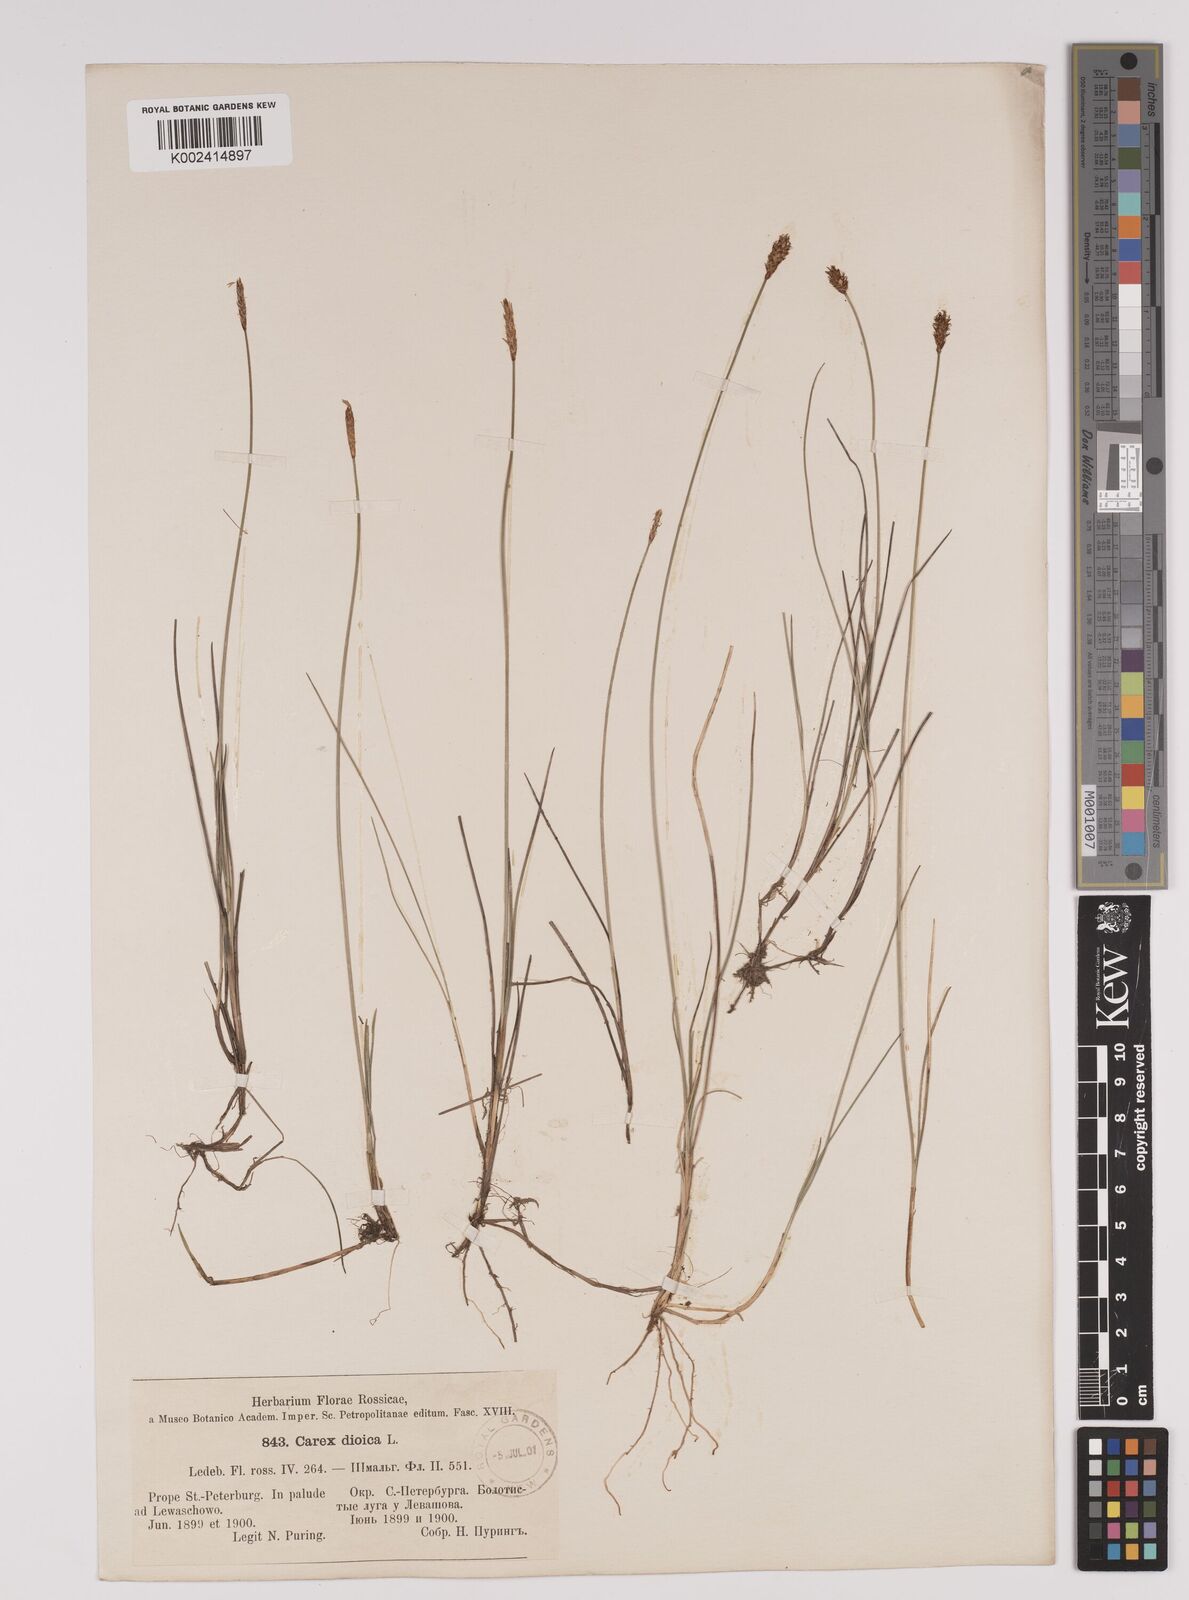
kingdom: Plantae
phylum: Tracheophyta
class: Liliopsida
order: Poales
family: Cyperaceae
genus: Carex
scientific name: Carex dioica
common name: Dioecious sedge
